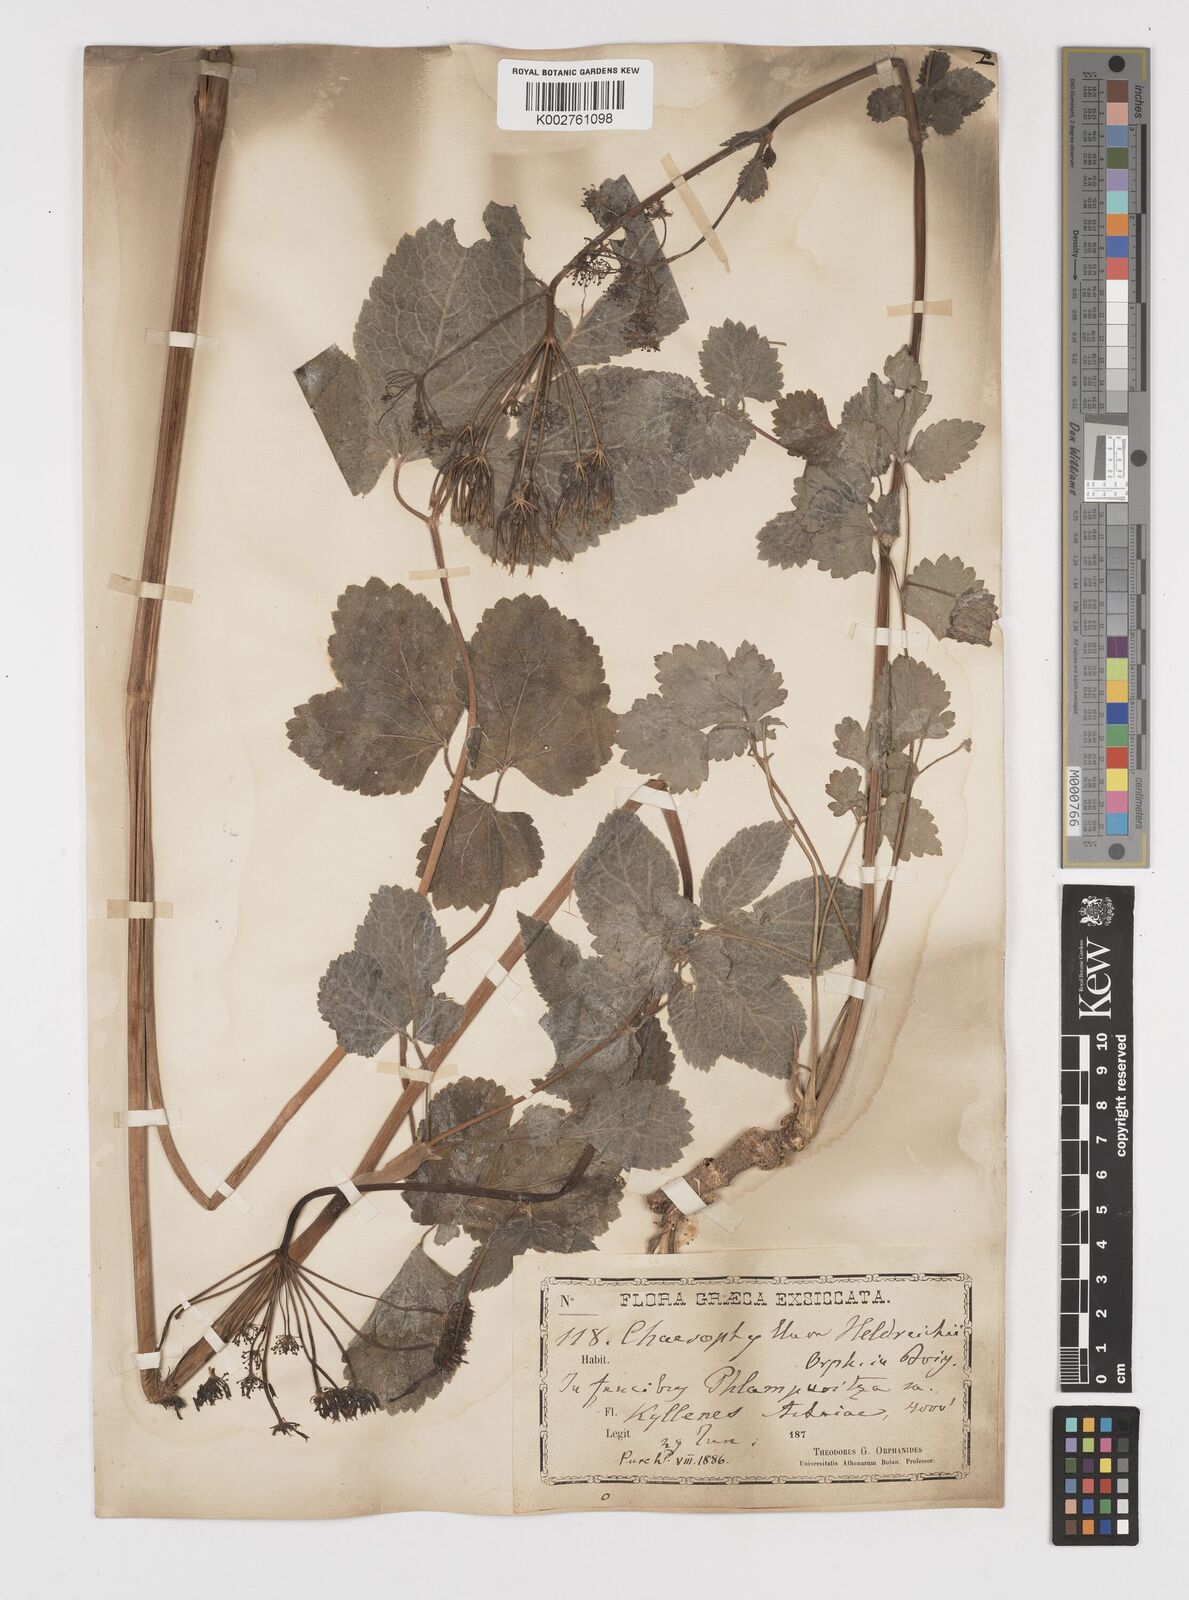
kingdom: Plantae
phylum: Tracheophyta
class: Magnoliopsida
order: Apiales
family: Apiaceae
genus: Chaerophyllum
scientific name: Chaerophyllum heldreichii
